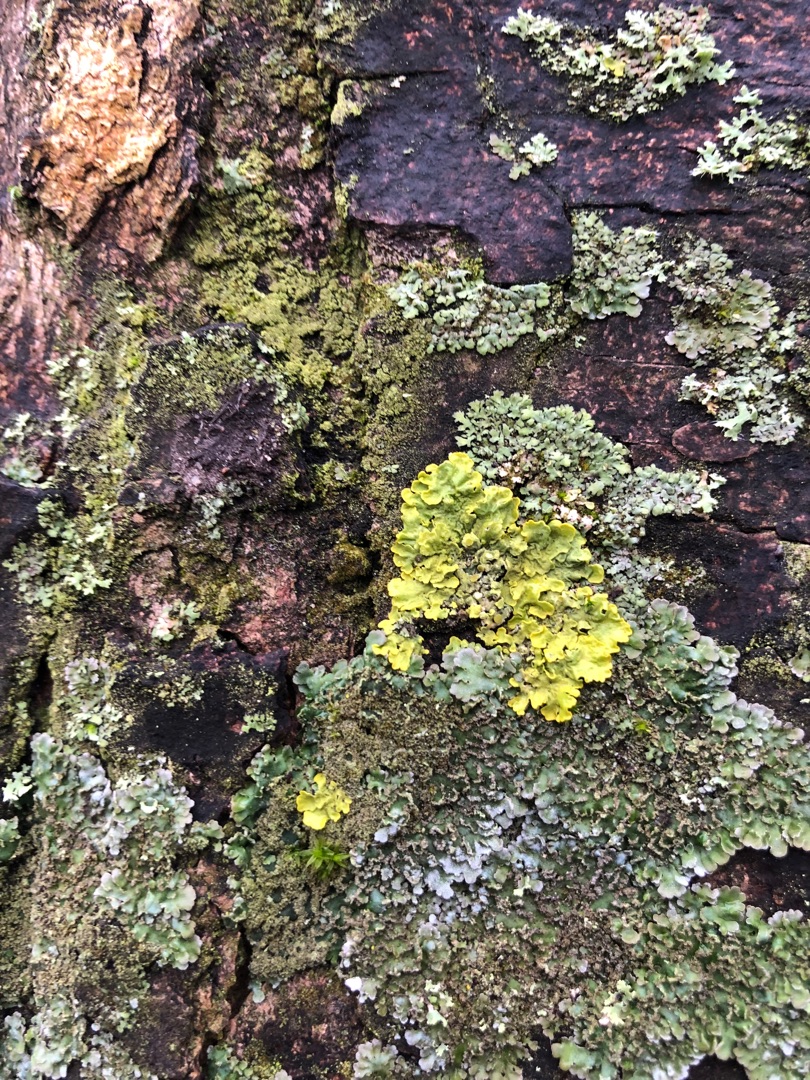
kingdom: Fungi
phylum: Ascomycota
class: Lecanoromycetes
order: Teloschistales
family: Teloschistaceae
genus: Xanthoria
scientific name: Xanthoria parietina
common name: Almindelig væggelav
